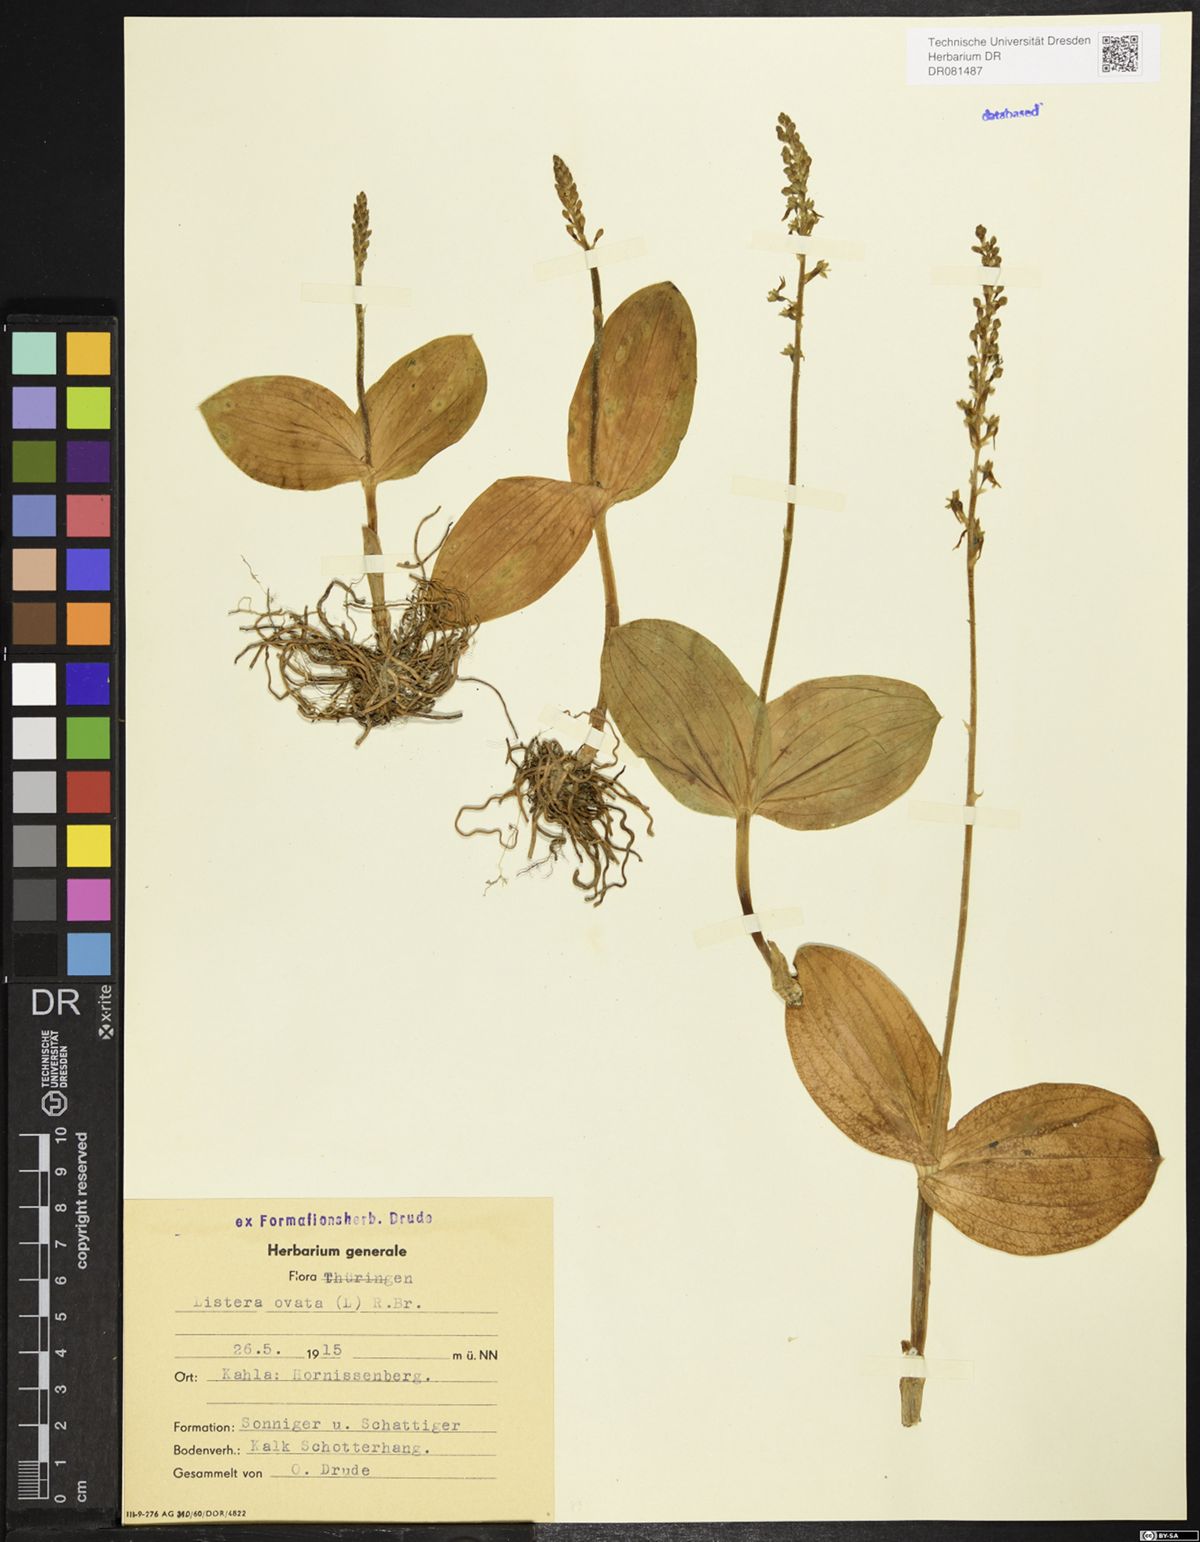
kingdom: Plantae
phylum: Tracheophyta
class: Liliopsida
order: Asparagales
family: Orchidaceae
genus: Neottia
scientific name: Neottia ovata
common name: Common twayblade
